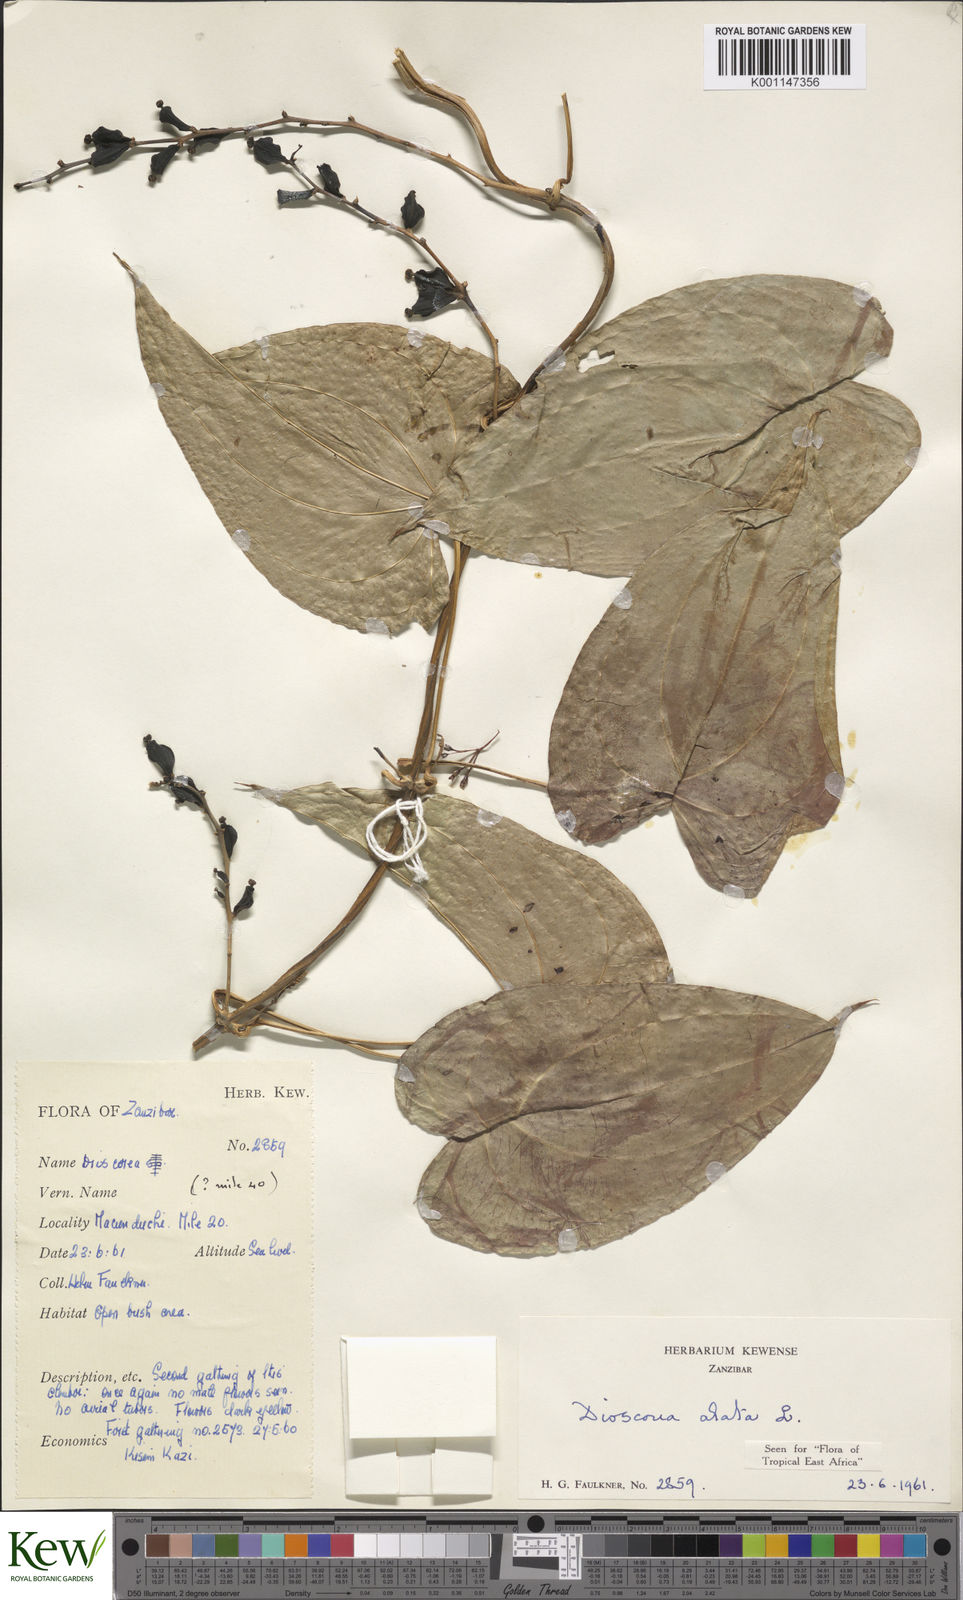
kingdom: Plantae
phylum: Tracheophyta
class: Liliopsida
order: Dioscoreales
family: Dioscoreaceae
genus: Dioscorea
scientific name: Dioscorea alata
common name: Water yam
